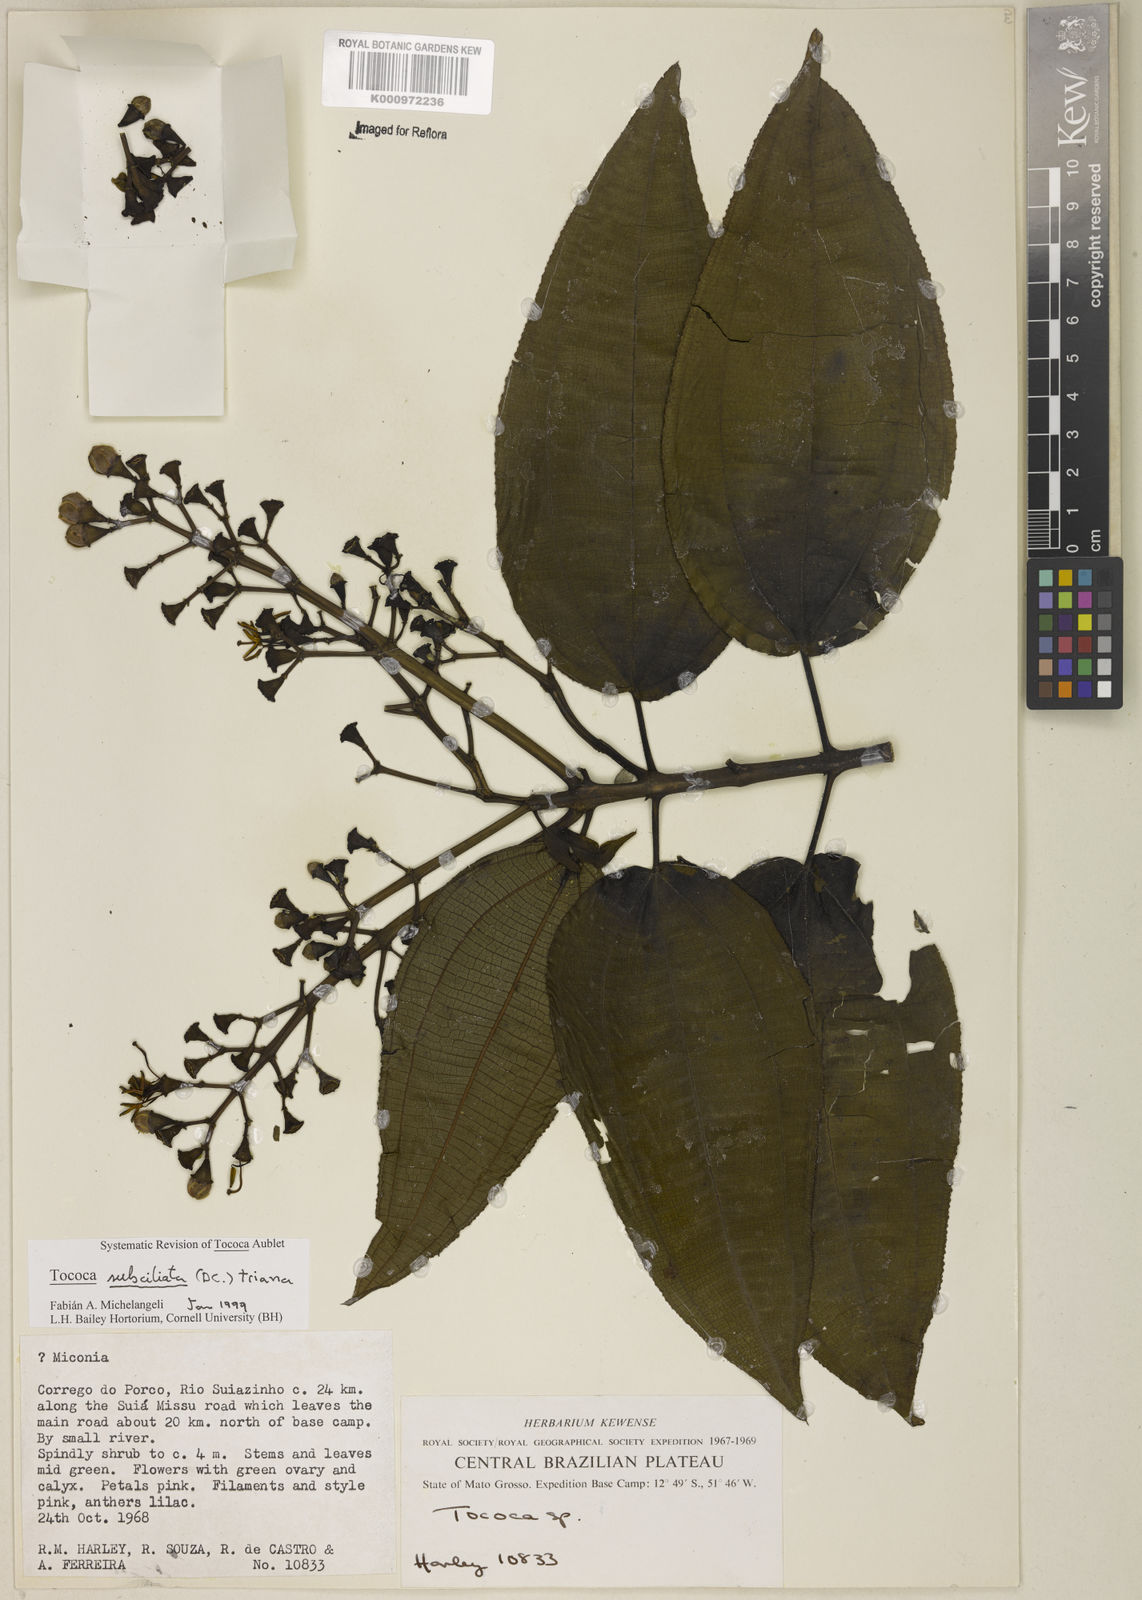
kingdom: Plantae
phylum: Tracheophyta
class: Magnoliopsida
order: Myrtales
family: Melastomataceae
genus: Miconia
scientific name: Miconia subciliata
